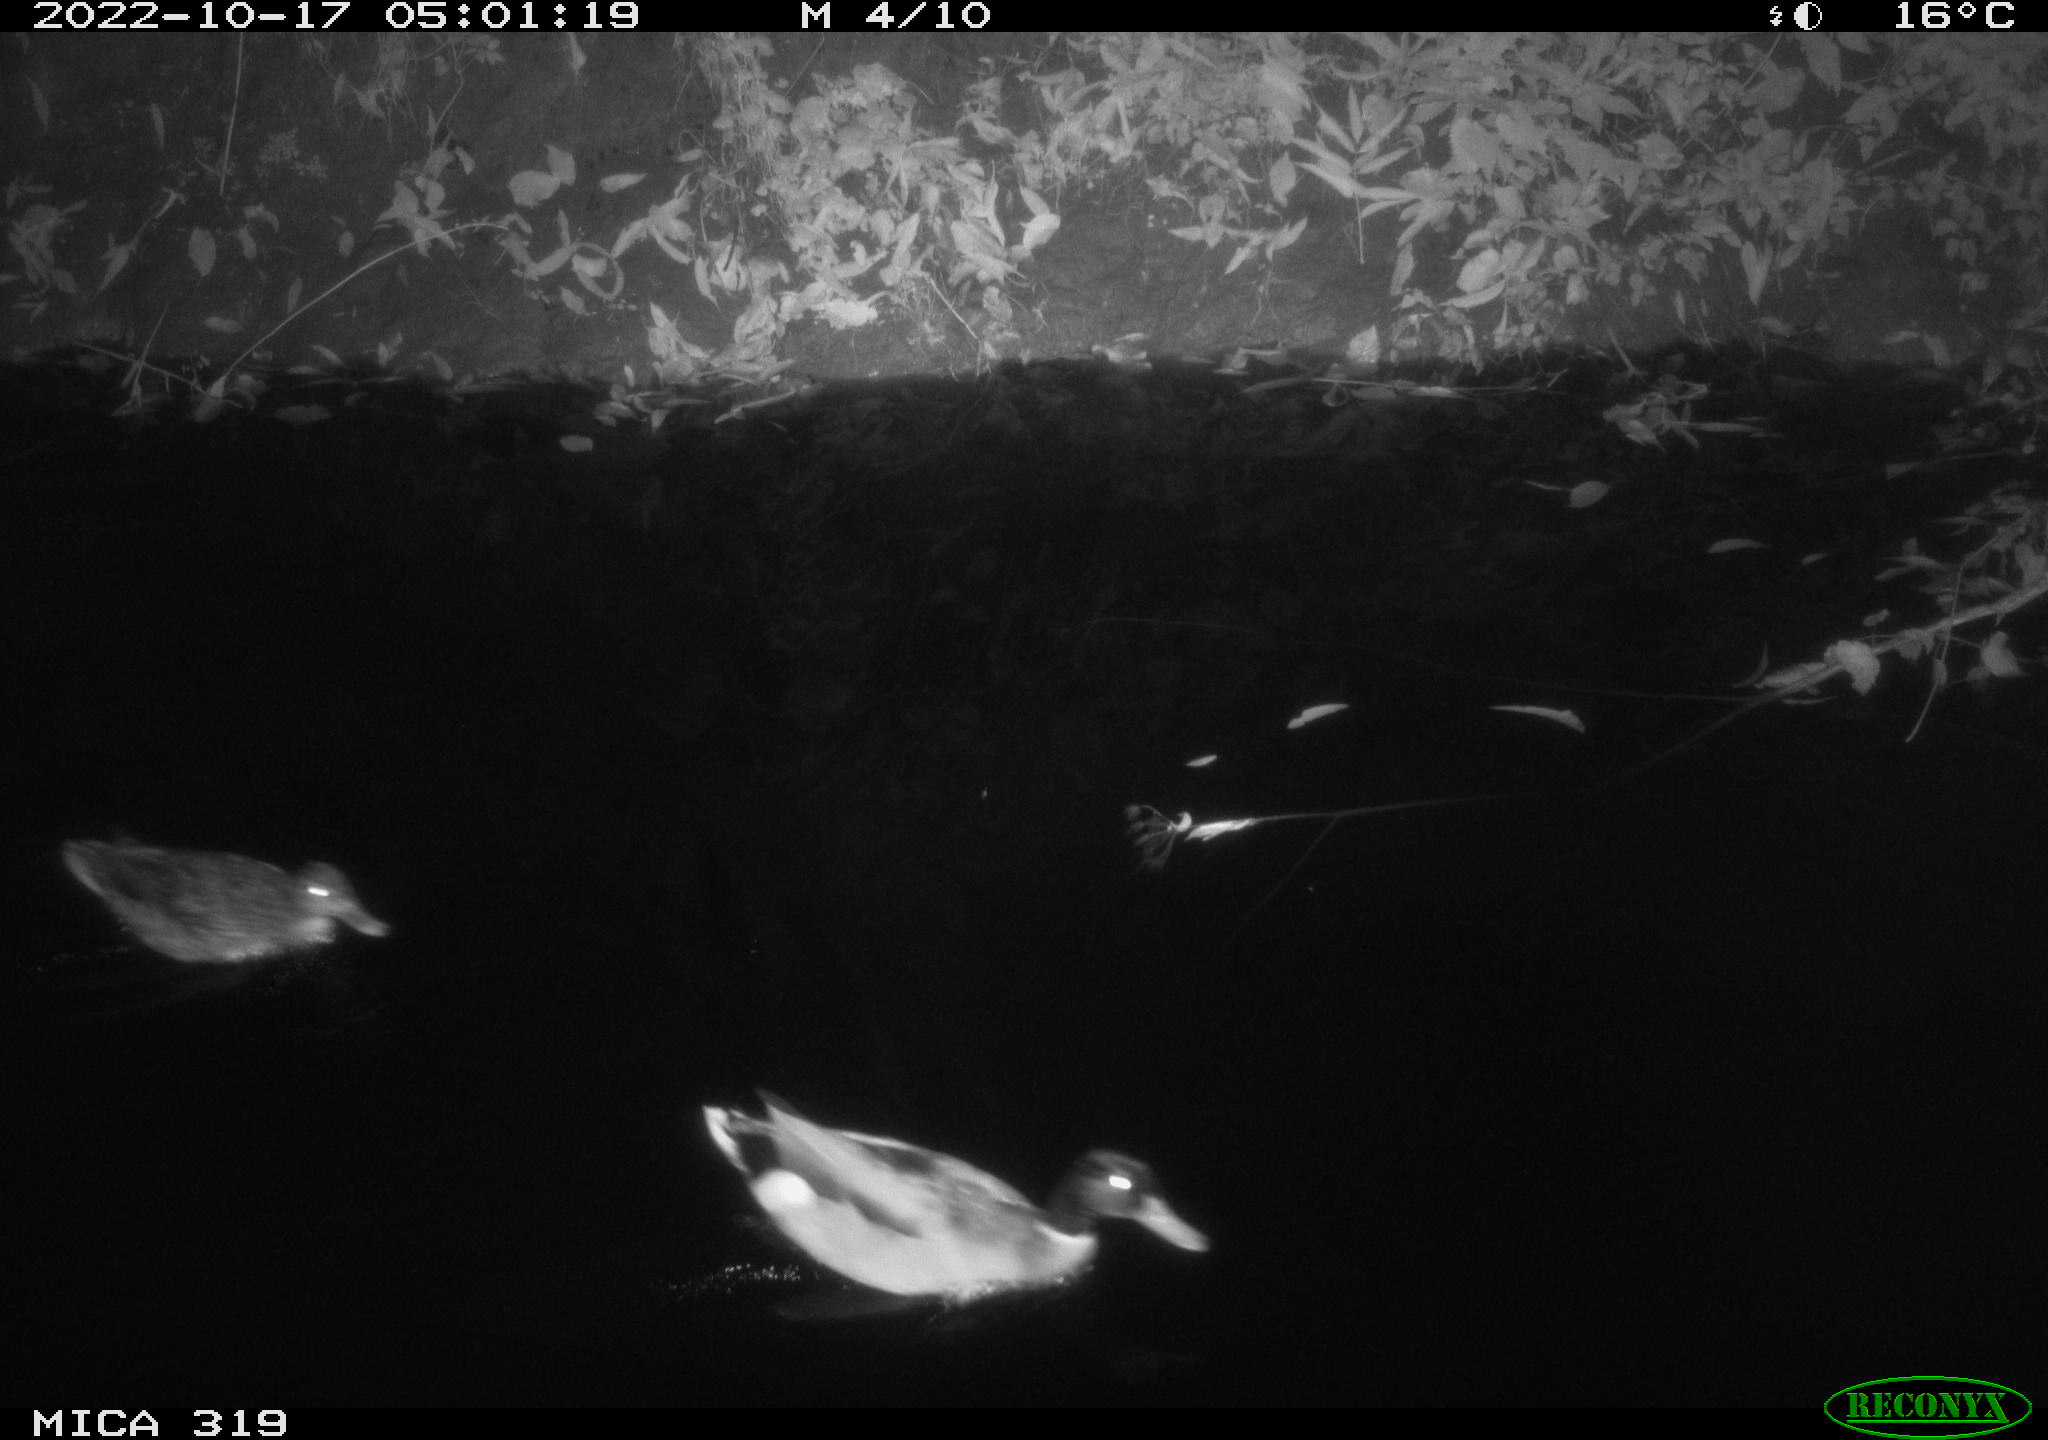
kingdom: Animalia
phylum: Chordata
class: Aves
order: Anseriformes
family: Anatidae
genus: Anas
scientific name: Anas
